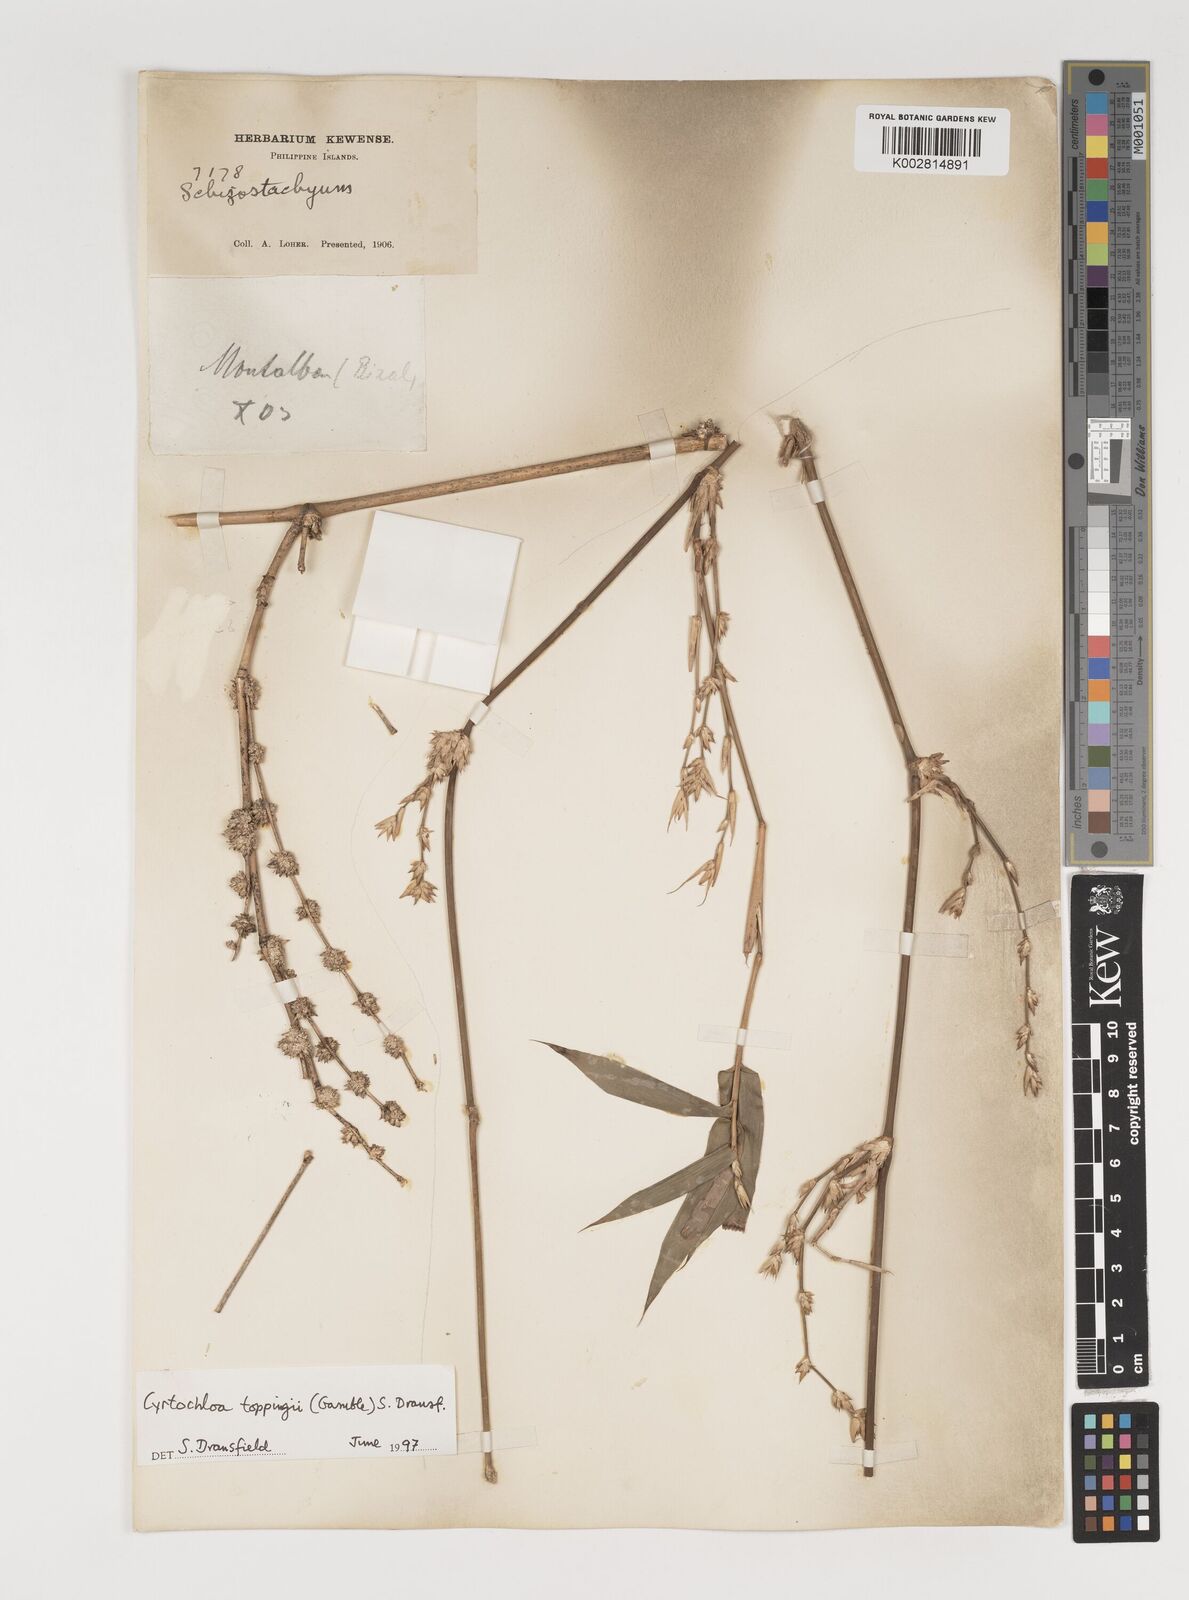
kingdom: Plantae
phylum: Tracheophyta
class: Liliopsida
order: Poales
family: Poaceae
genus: Cyrtochloa
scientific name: Cyrtochloa toppingii
